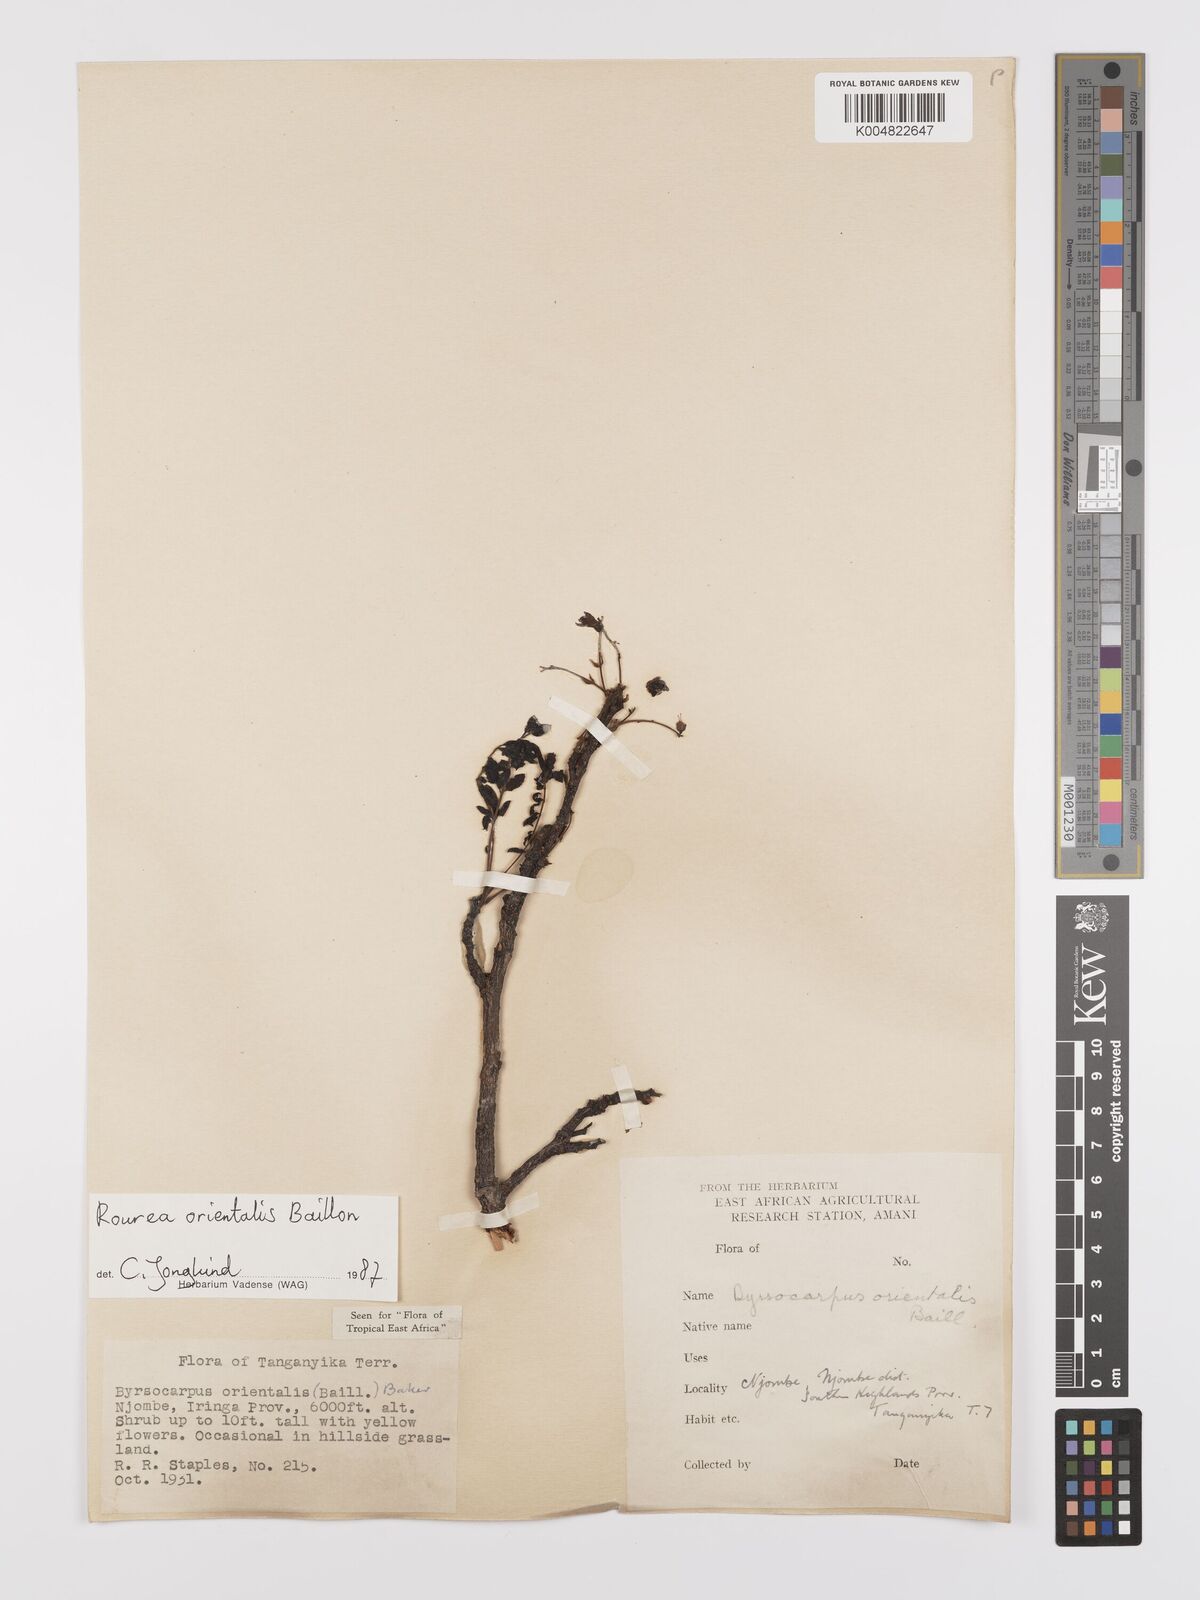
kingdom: Plantae
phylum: Tracheophyta
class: Magnoliopsida
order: Oxalidales
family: Connaraceae
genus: Rourea
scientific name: Rourea orientalis
